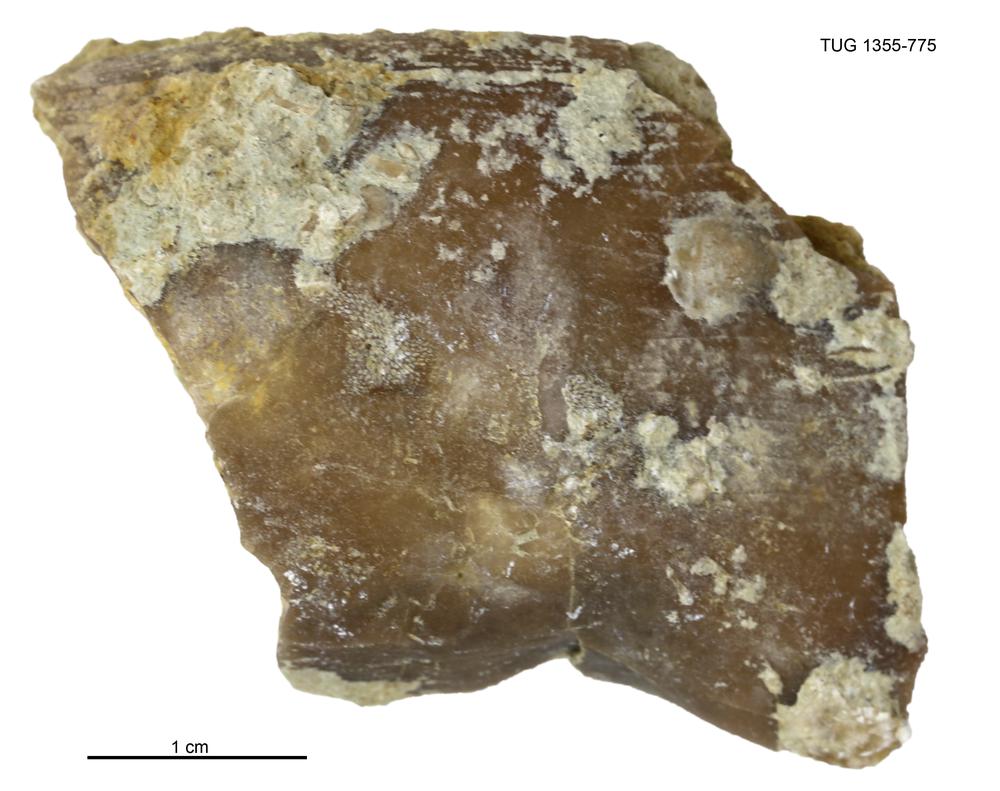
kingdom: Animalia
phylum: Arthropoda
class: Trilobita
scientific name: Trilobita
